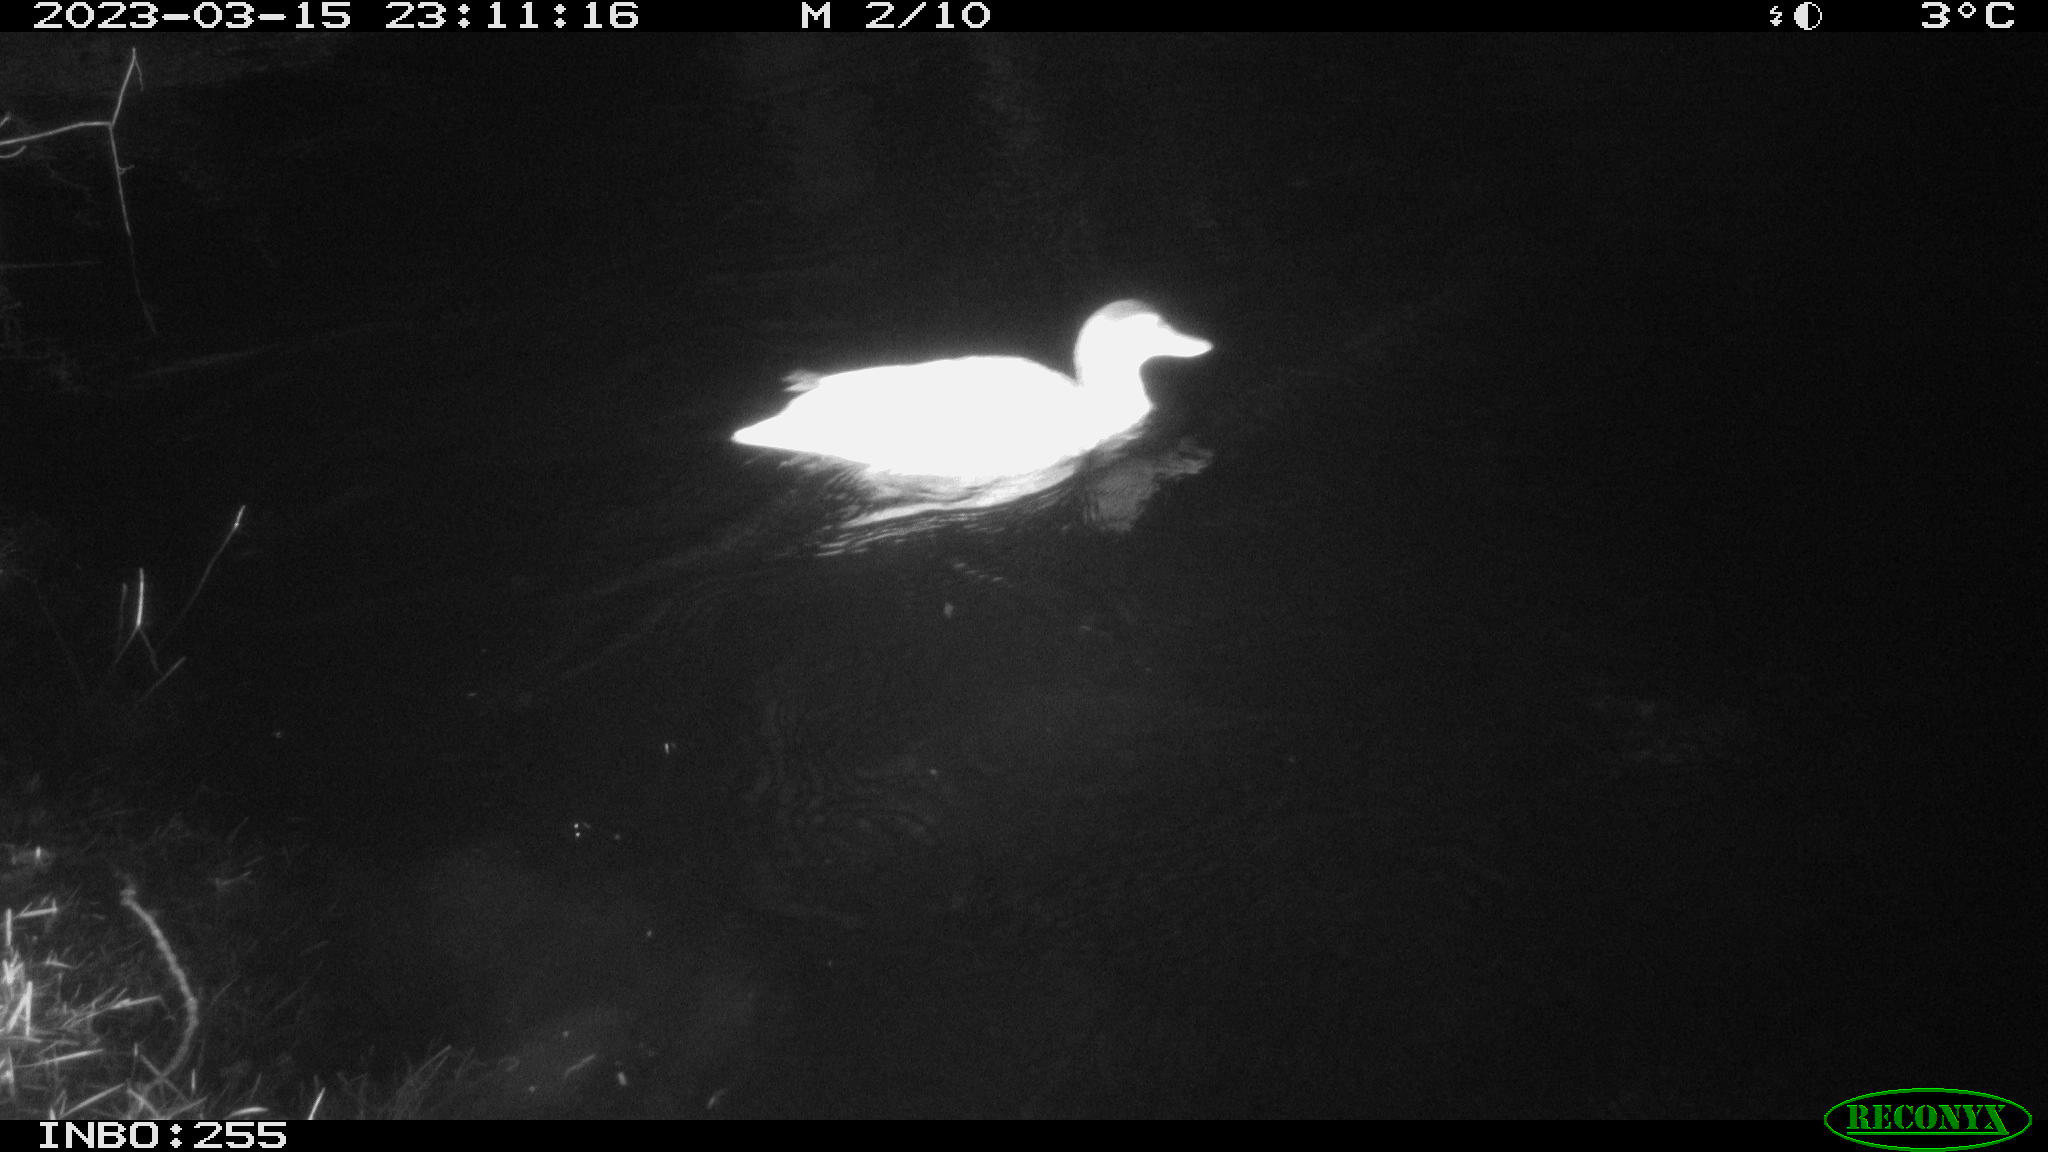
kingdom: Animalia
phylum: Chordata
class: Aves
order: Anseriformes
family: Anatidae
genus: Anas
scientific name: Anas
